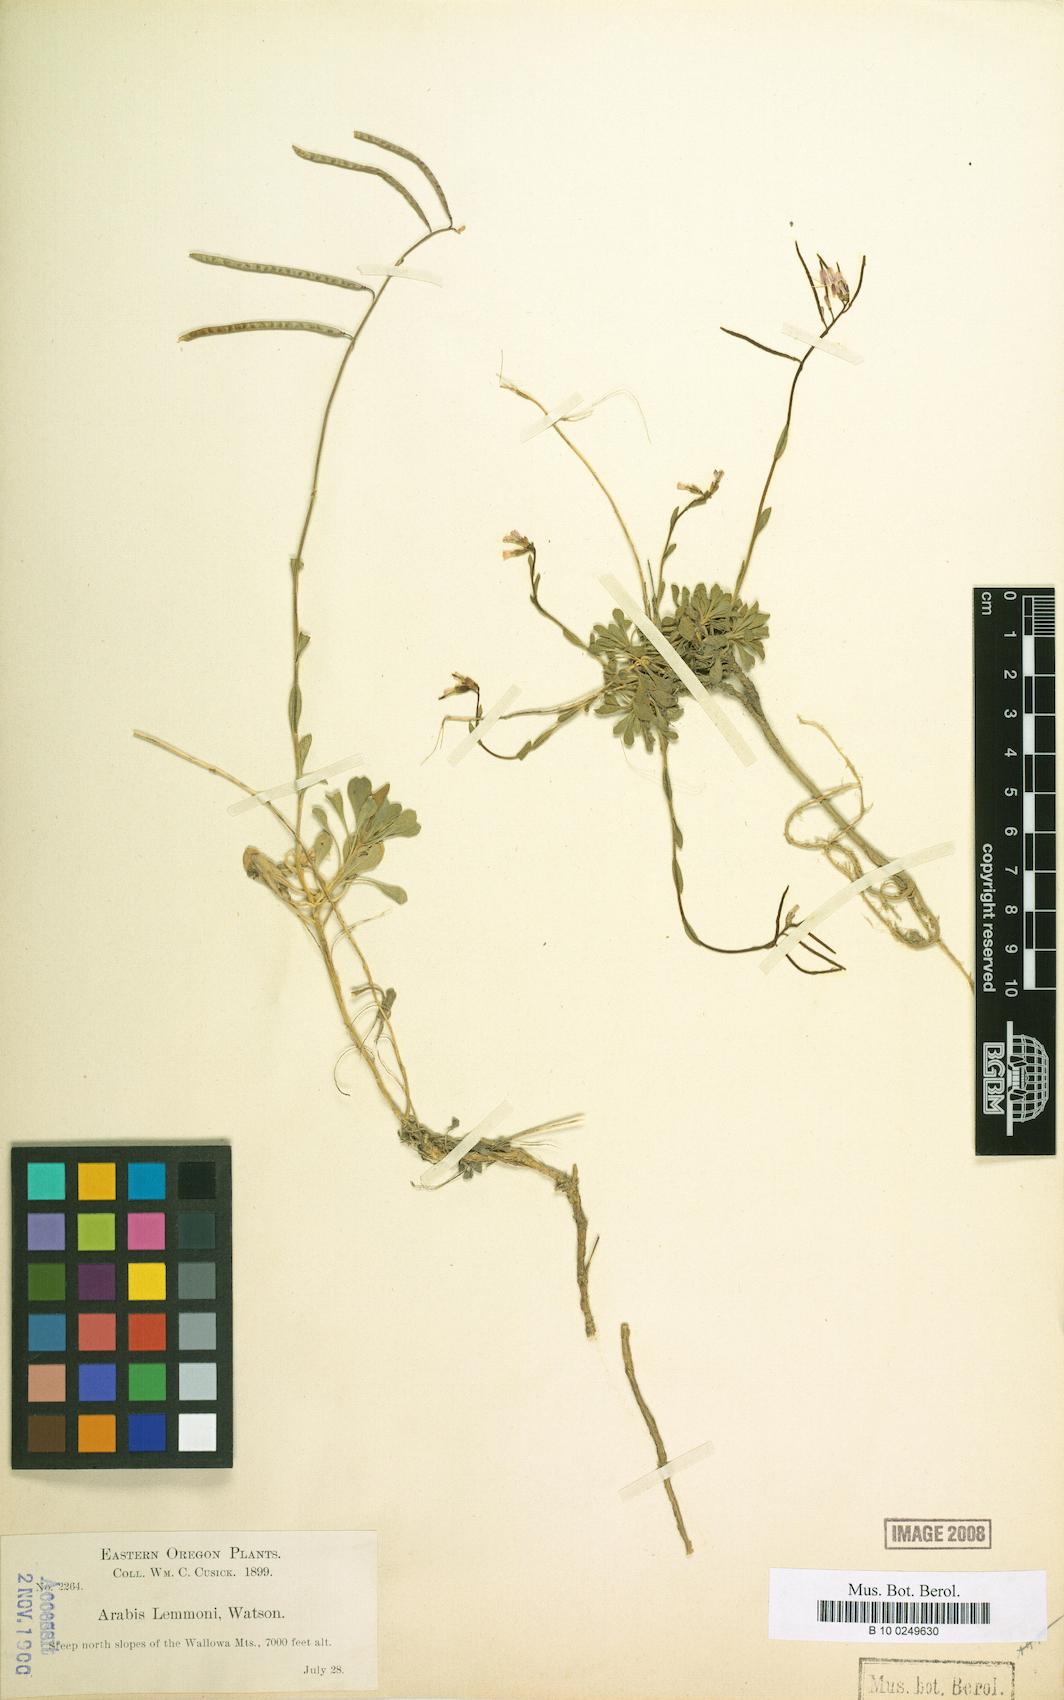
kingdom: Plantae
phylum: Tracheophyta
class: Magnoliopsida
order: Brassicales
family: Brassicaceae
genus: Boechera
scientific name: Boechera lemmonii
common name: Lemmon's rockcress
